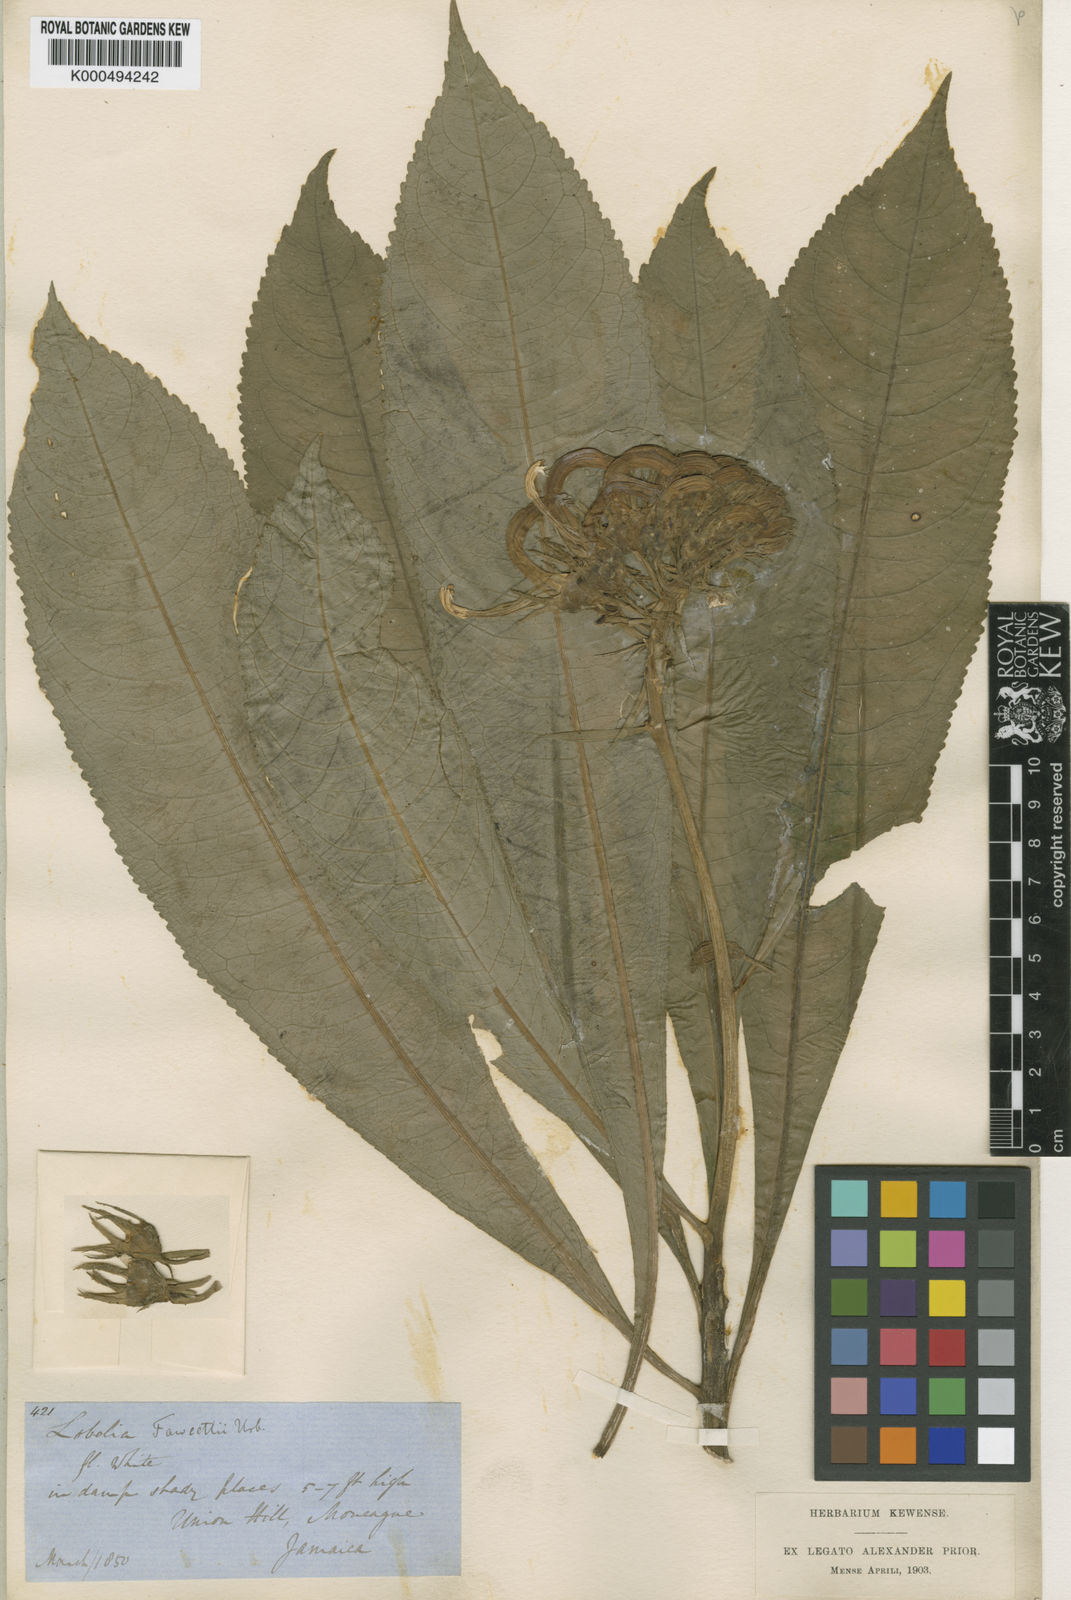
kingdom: Plantae
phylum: Tracheophyta
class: Magnoliopsida
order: Asterales
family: Campanulaceae
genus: Lobelia
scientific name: Lobelia fawcettii
